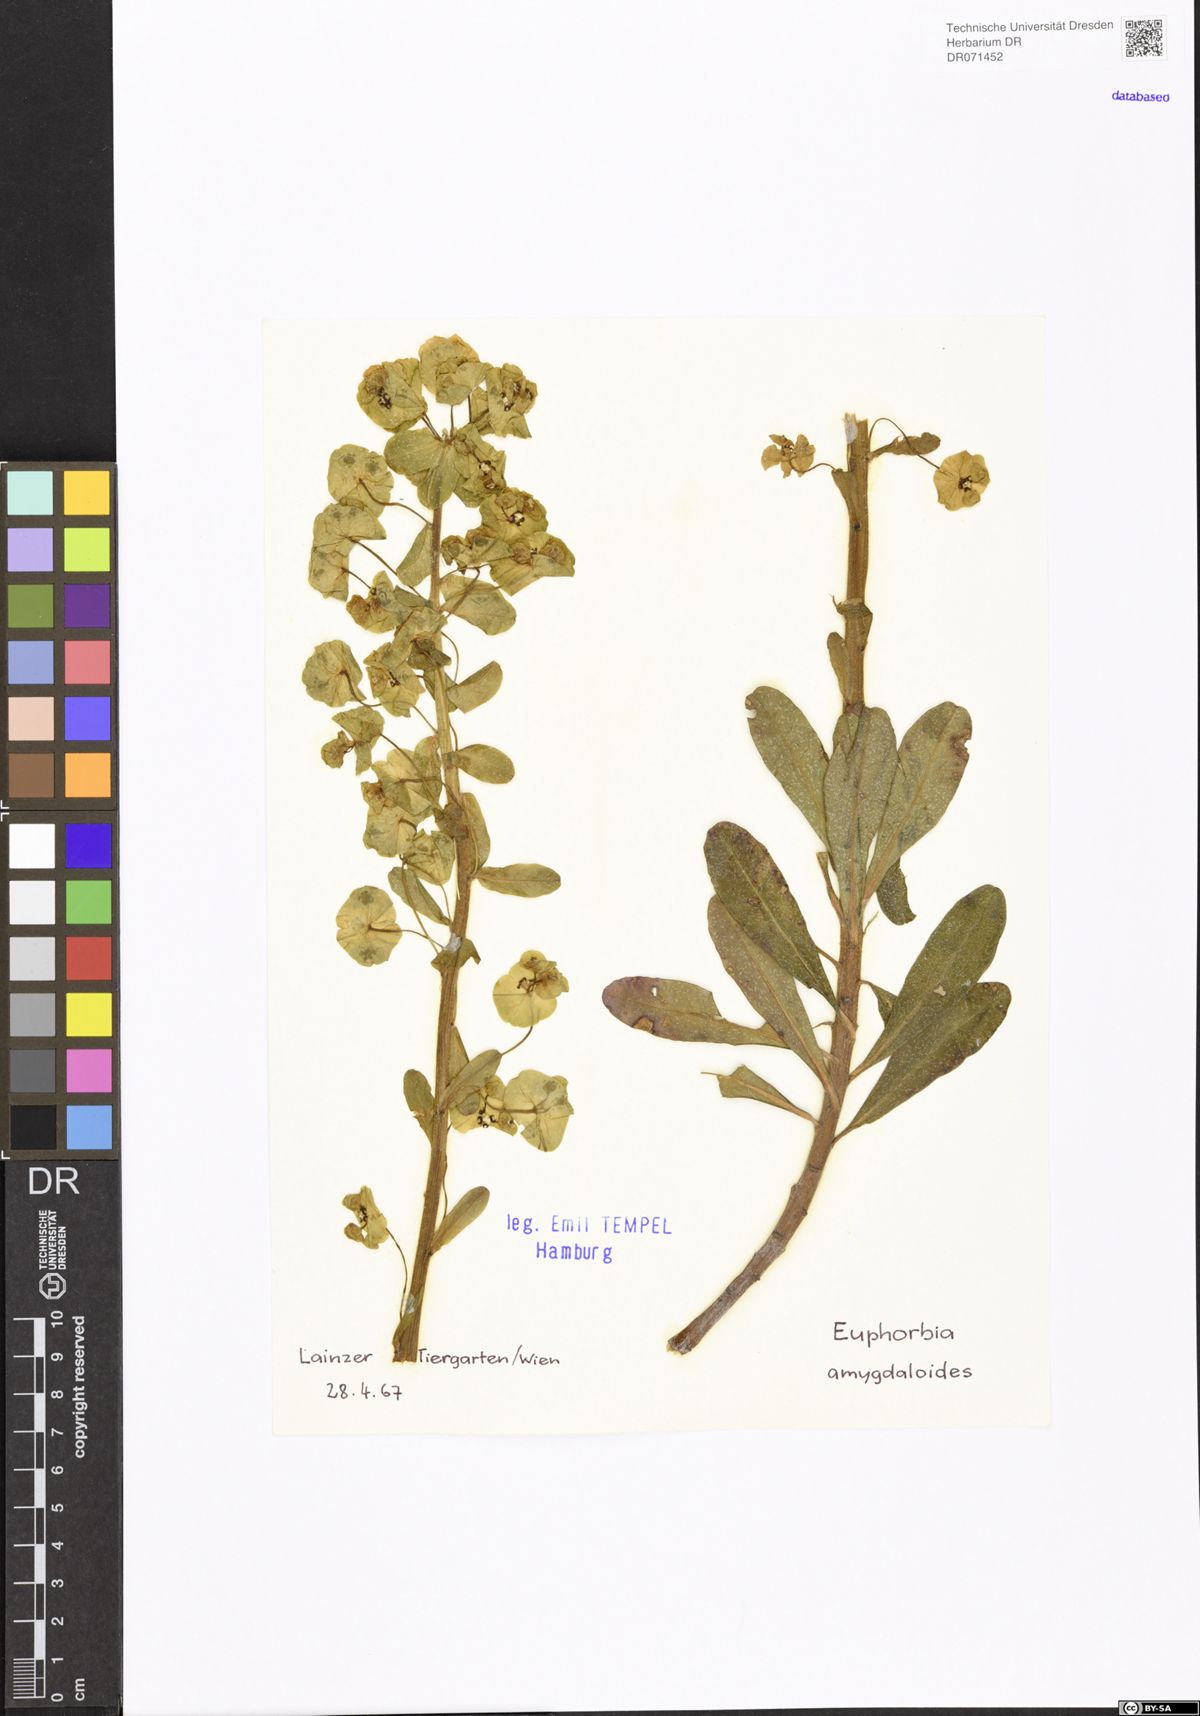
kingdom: Plantae
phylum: Tracheophyta
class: Magnoliopsida
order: Malpighiales
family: Euphorbiaceae
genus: Euphorbia
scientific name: Euphorbia amygdaloides
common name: Wood spurge
